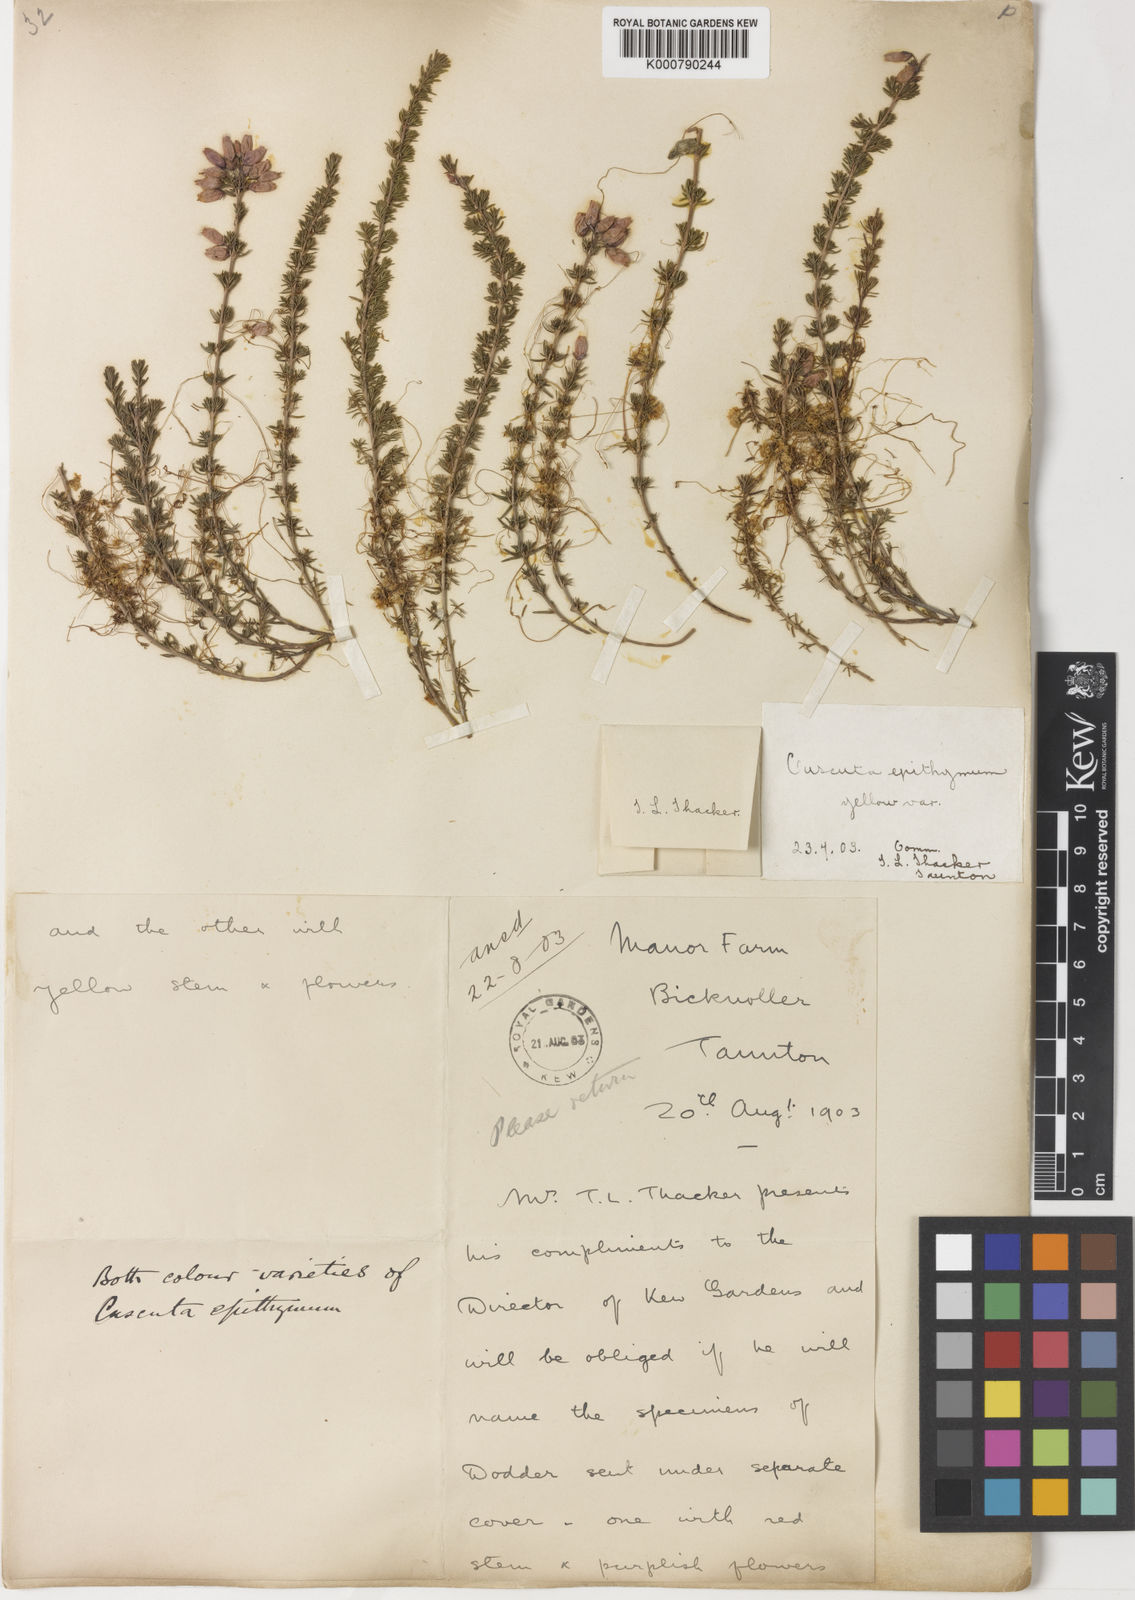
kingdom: Plantae
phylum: Tracheophyta
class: Magnoliopsida
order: Solanales
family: Convolvulaceae
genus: Cuscuta
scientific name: Cuscuta epithymum
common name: Clover dodder
